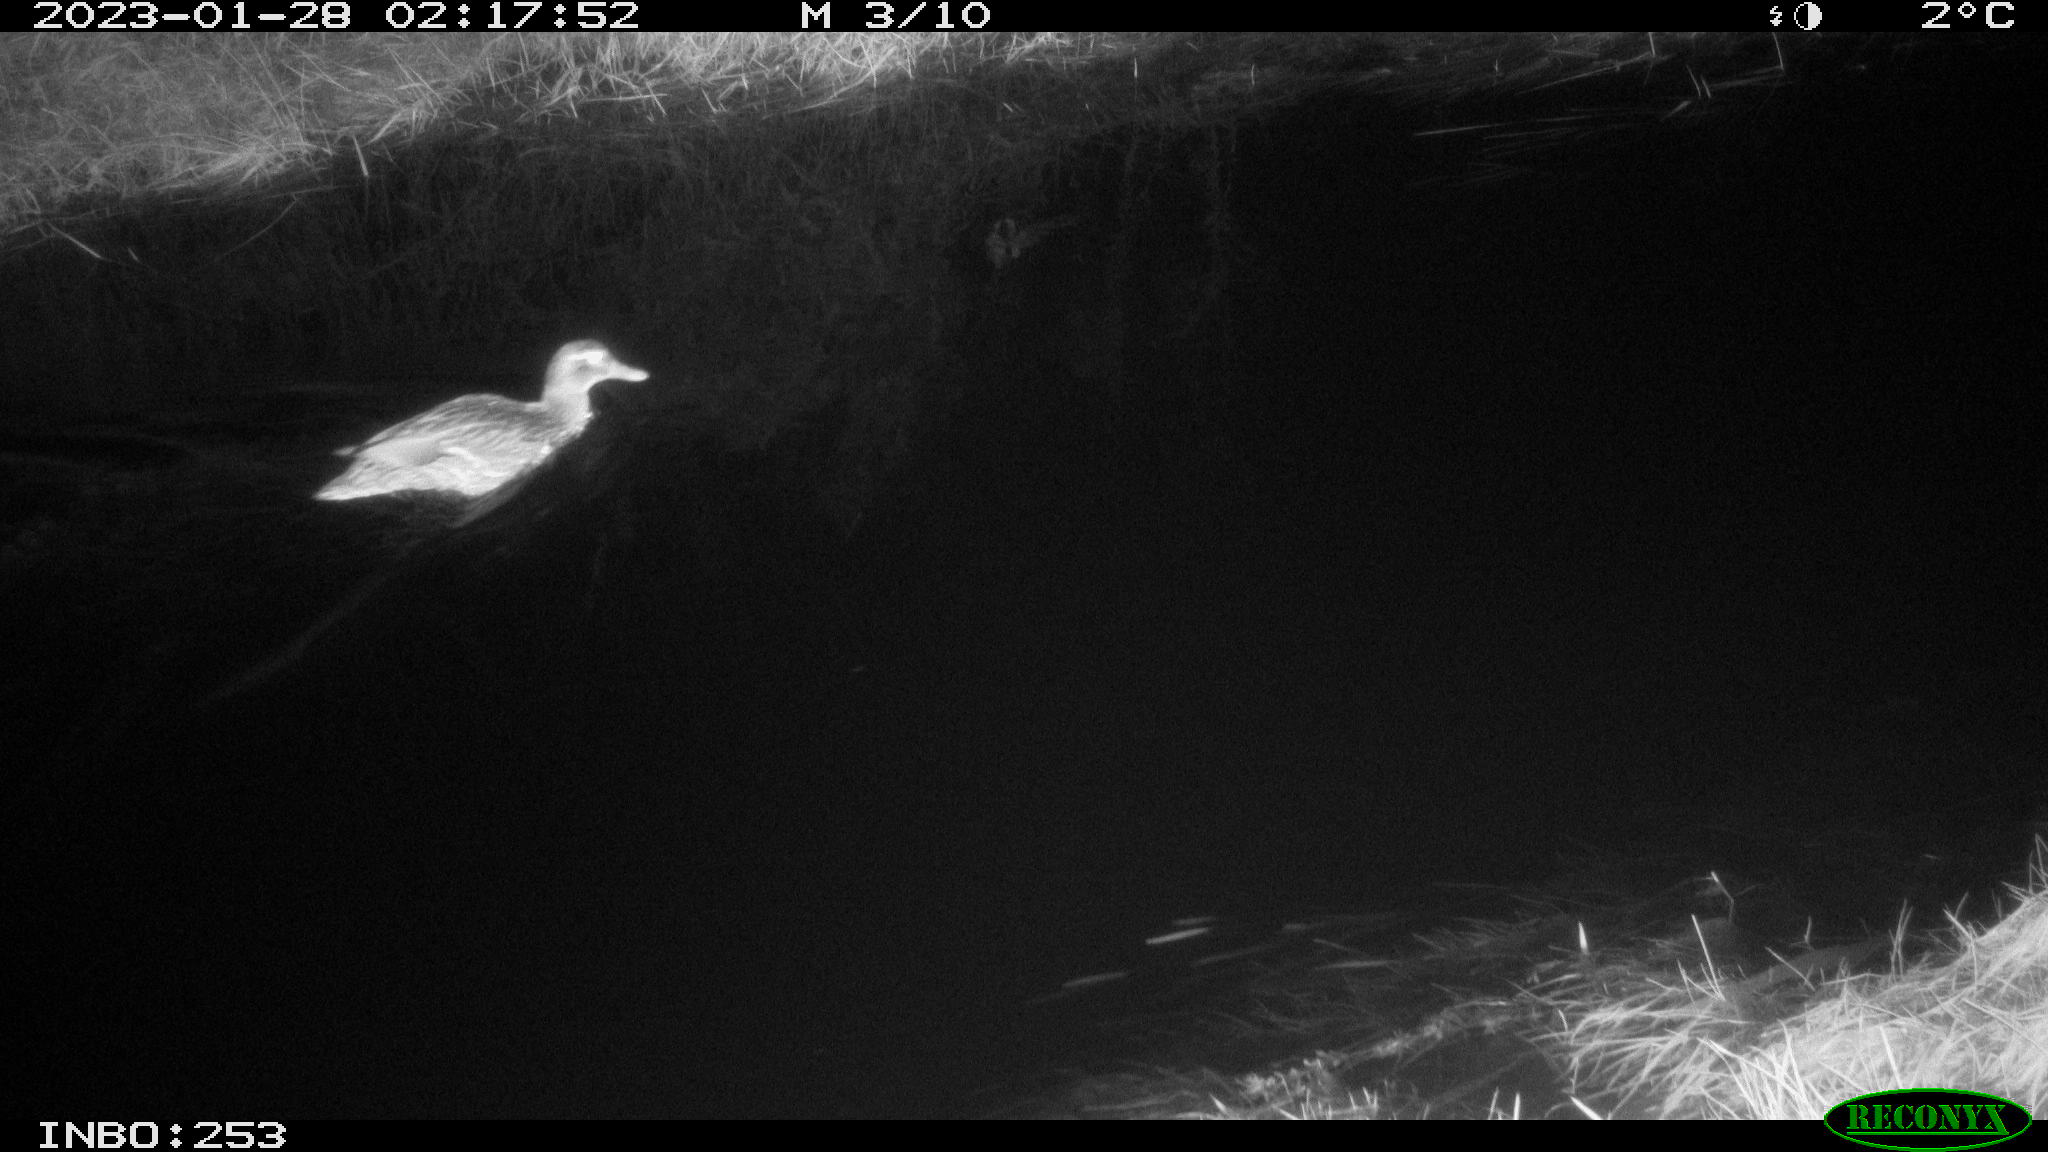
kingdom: Animalia
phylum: Chordata
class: Aves
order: Anseriformes
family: Anatidae
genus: Anas
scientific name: Anas
